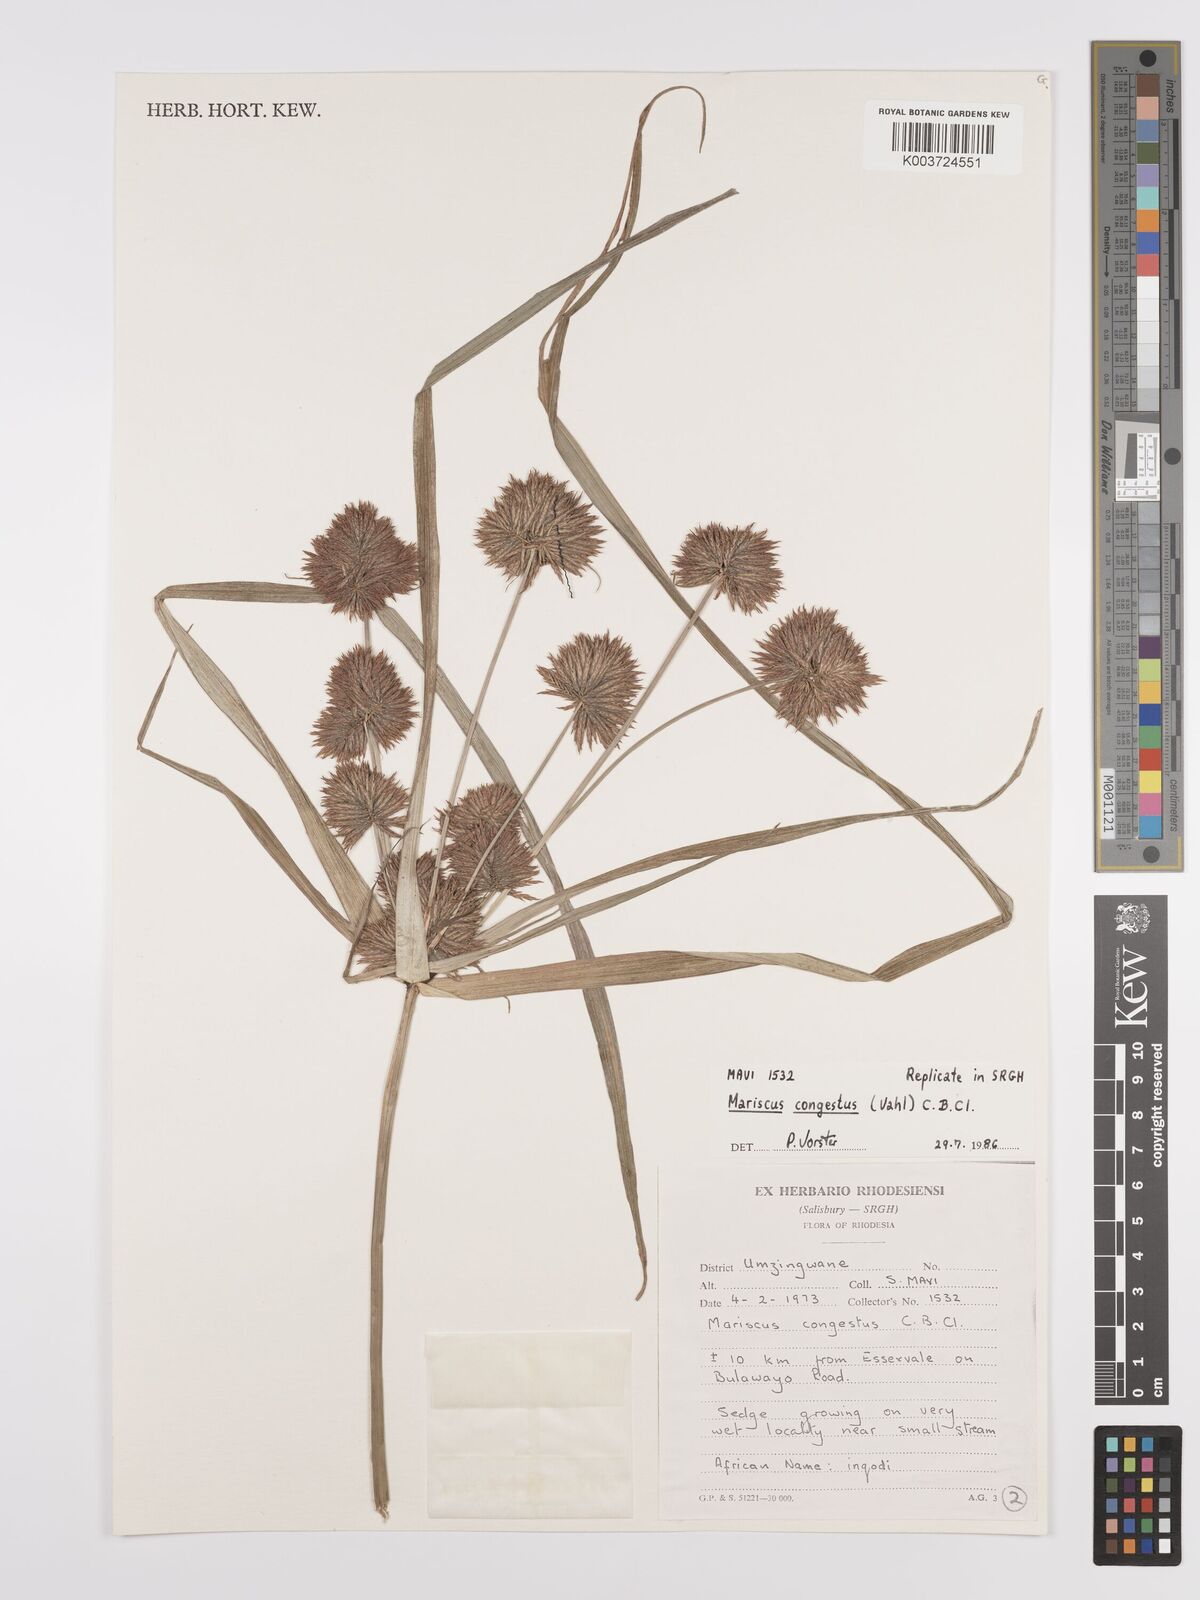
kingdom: Plantae
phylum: Tracheophyta
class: Liliopsida
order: Poales
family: Cyperaceae
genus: Cyperus
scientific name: Cyperus congestus
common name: Dense flat sedge
